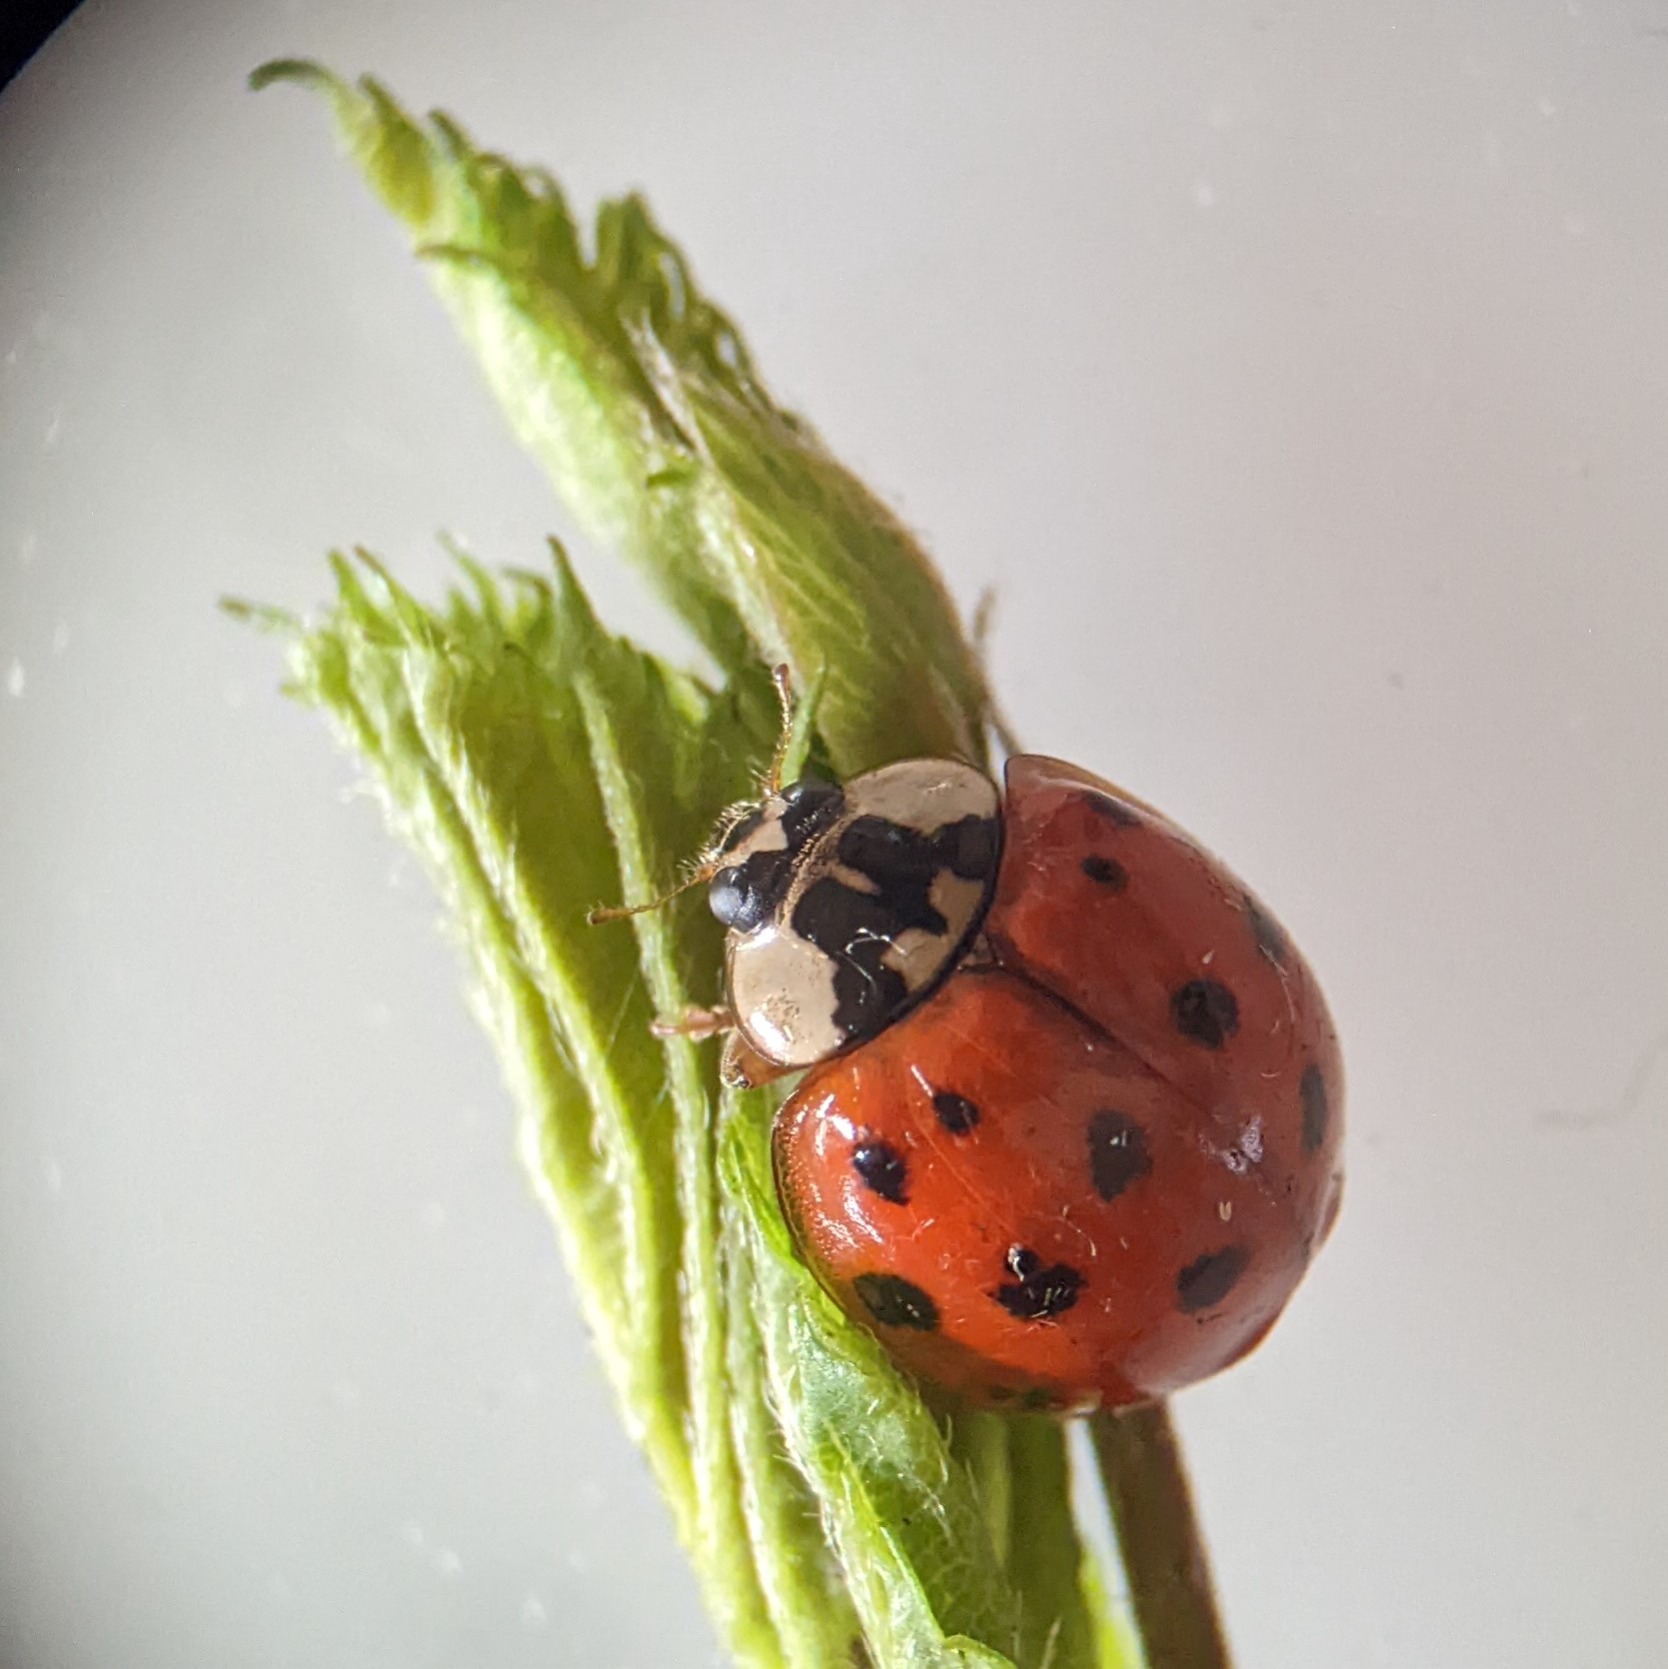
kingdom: Animalia
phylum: Arthropoda
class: Insecta
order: Coleoptera
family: Coccinellidae
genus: Harmonia
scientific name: Harmonia axyridis
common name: Harlekinmariehøne
